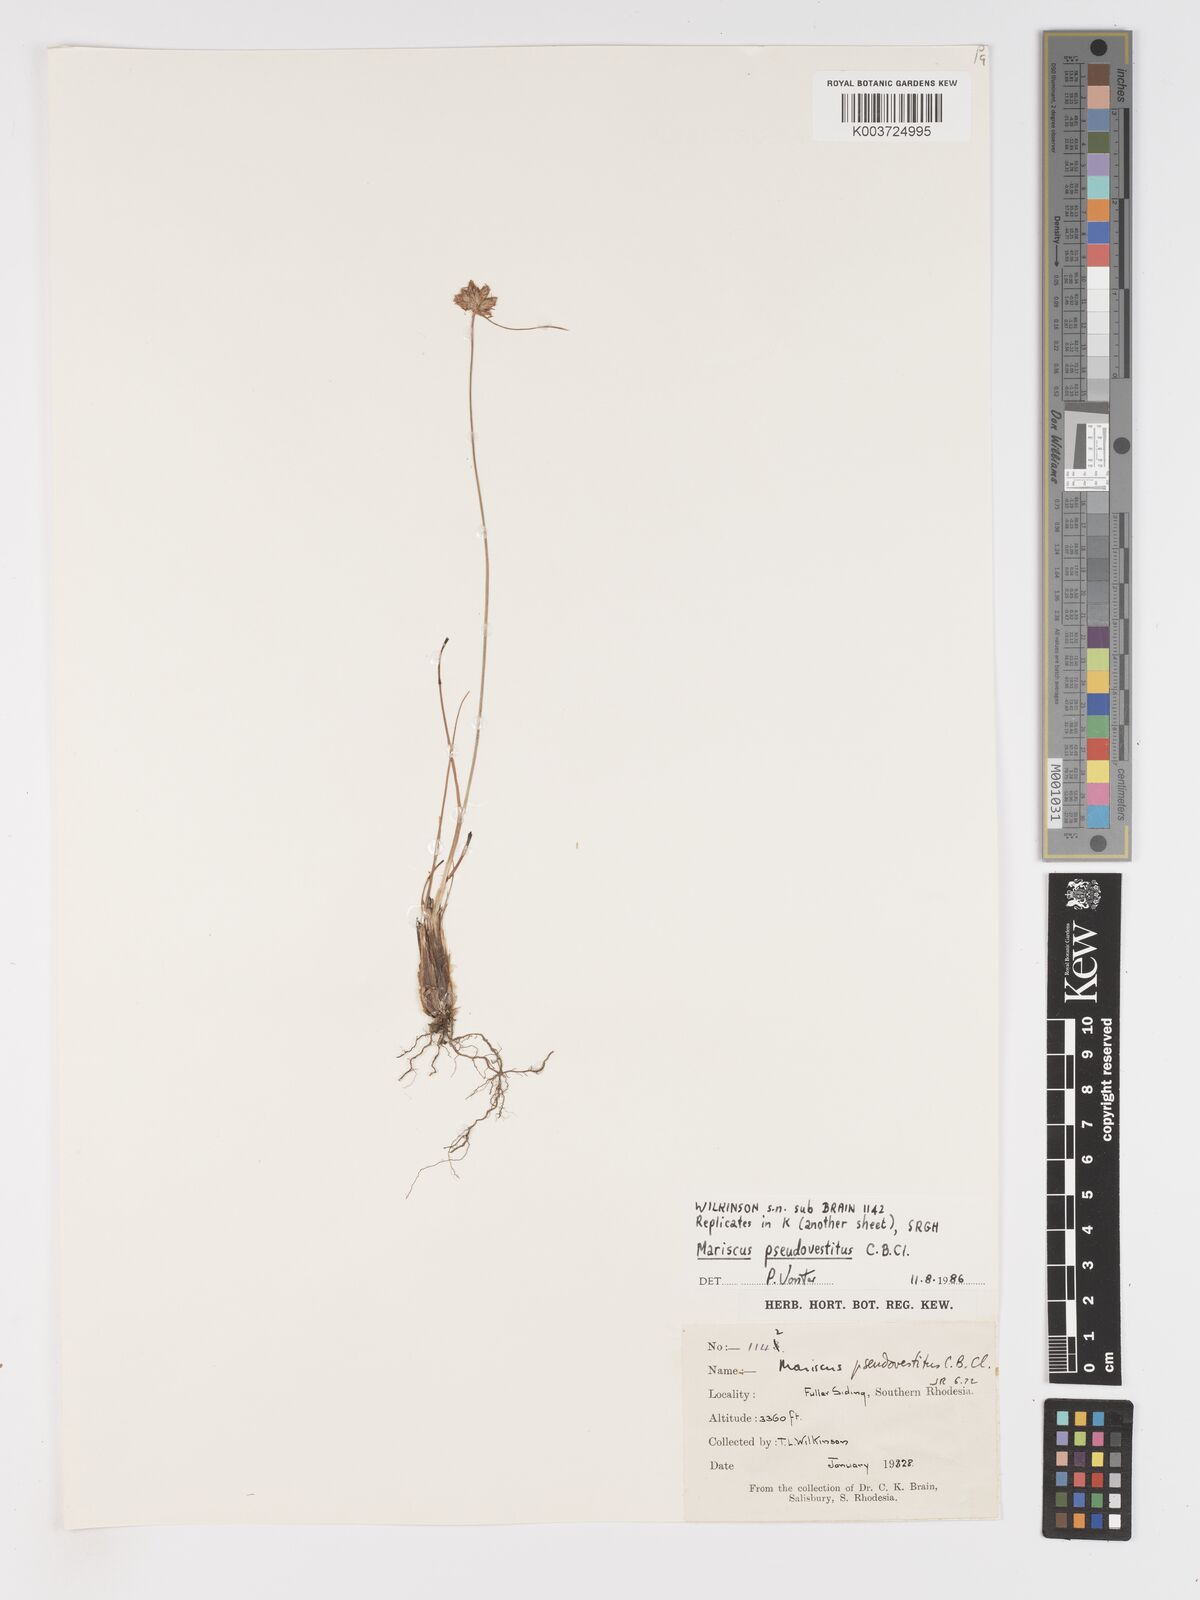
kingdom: Plantae
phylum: Tracheophyta
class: Liliopsida
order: Poales
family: Cyperaceae
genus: Cyperus
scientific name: Cyperus pseudovestitus
